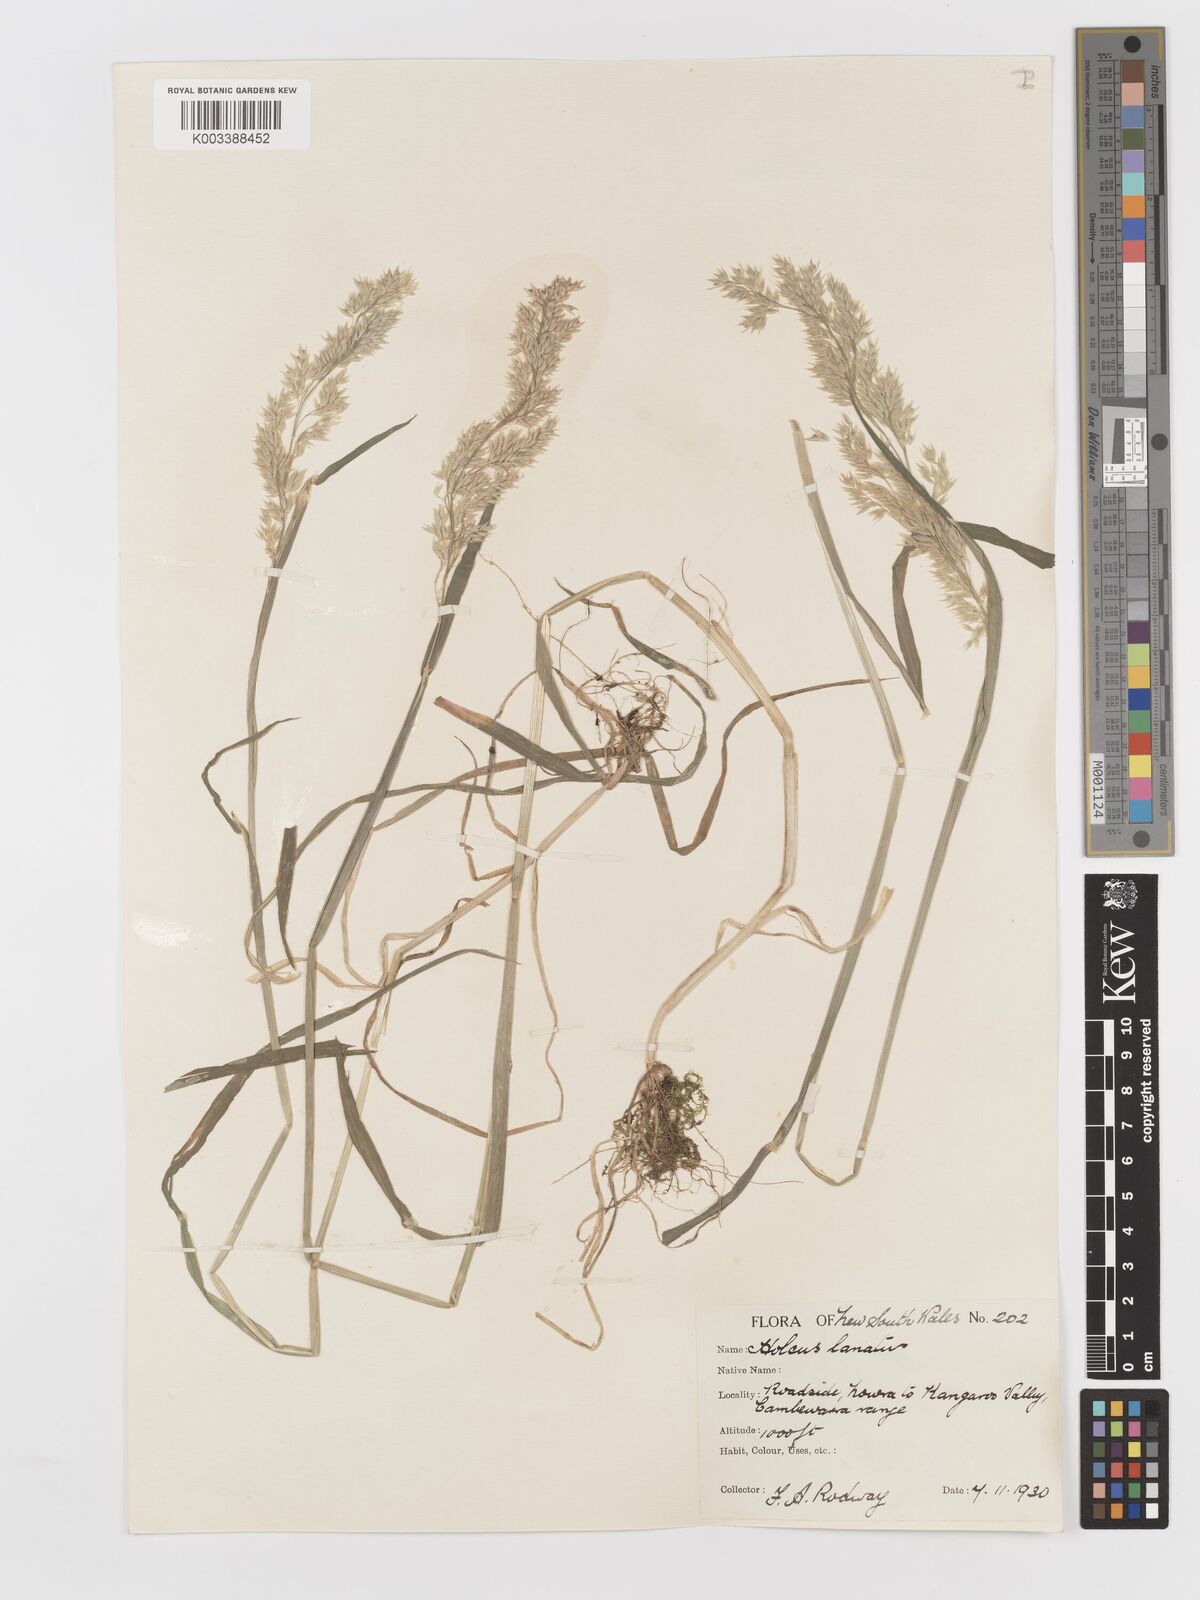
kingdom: Plantae
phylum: Tracheophyta
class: Liliopsida
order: Poales
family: Poaceae
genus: Holcus
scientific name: Holcus lanatus
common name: Yorkshire-fog
